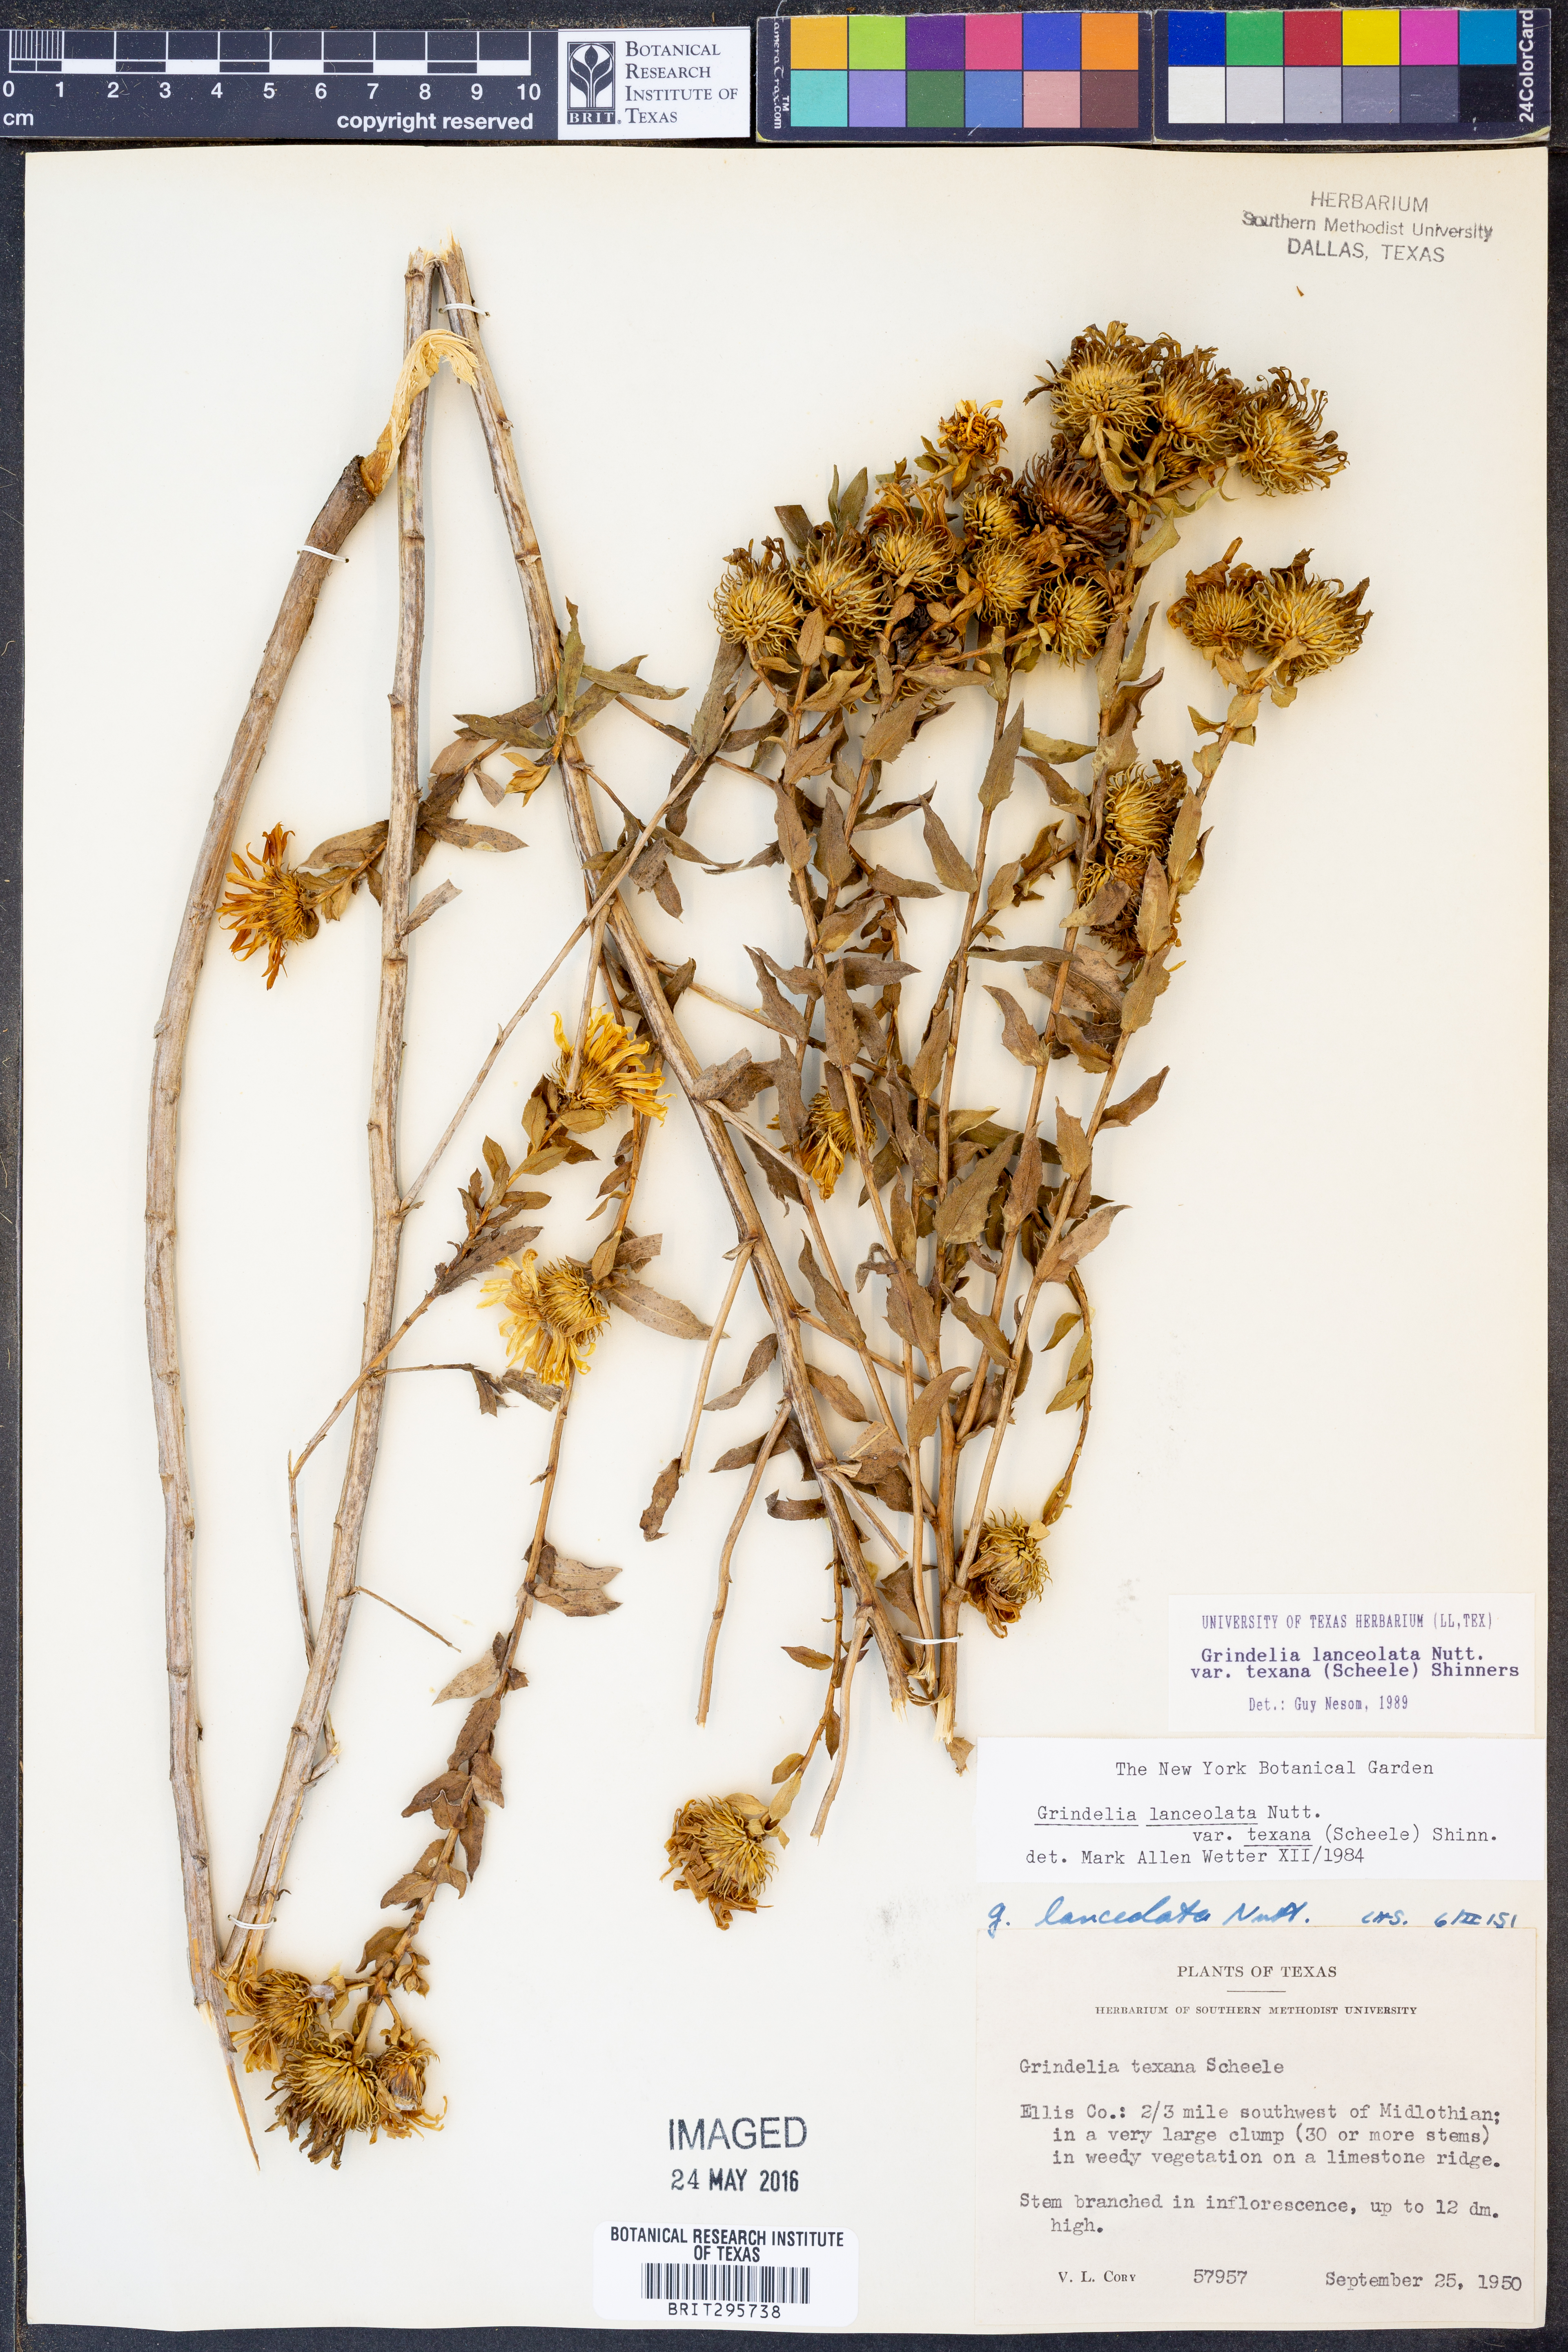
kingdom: Plantae
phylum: Tracheophyta
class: Magnoliopsida
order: Asterales
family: Asteraceae
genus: Grindelia
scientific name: Grindelia texana
